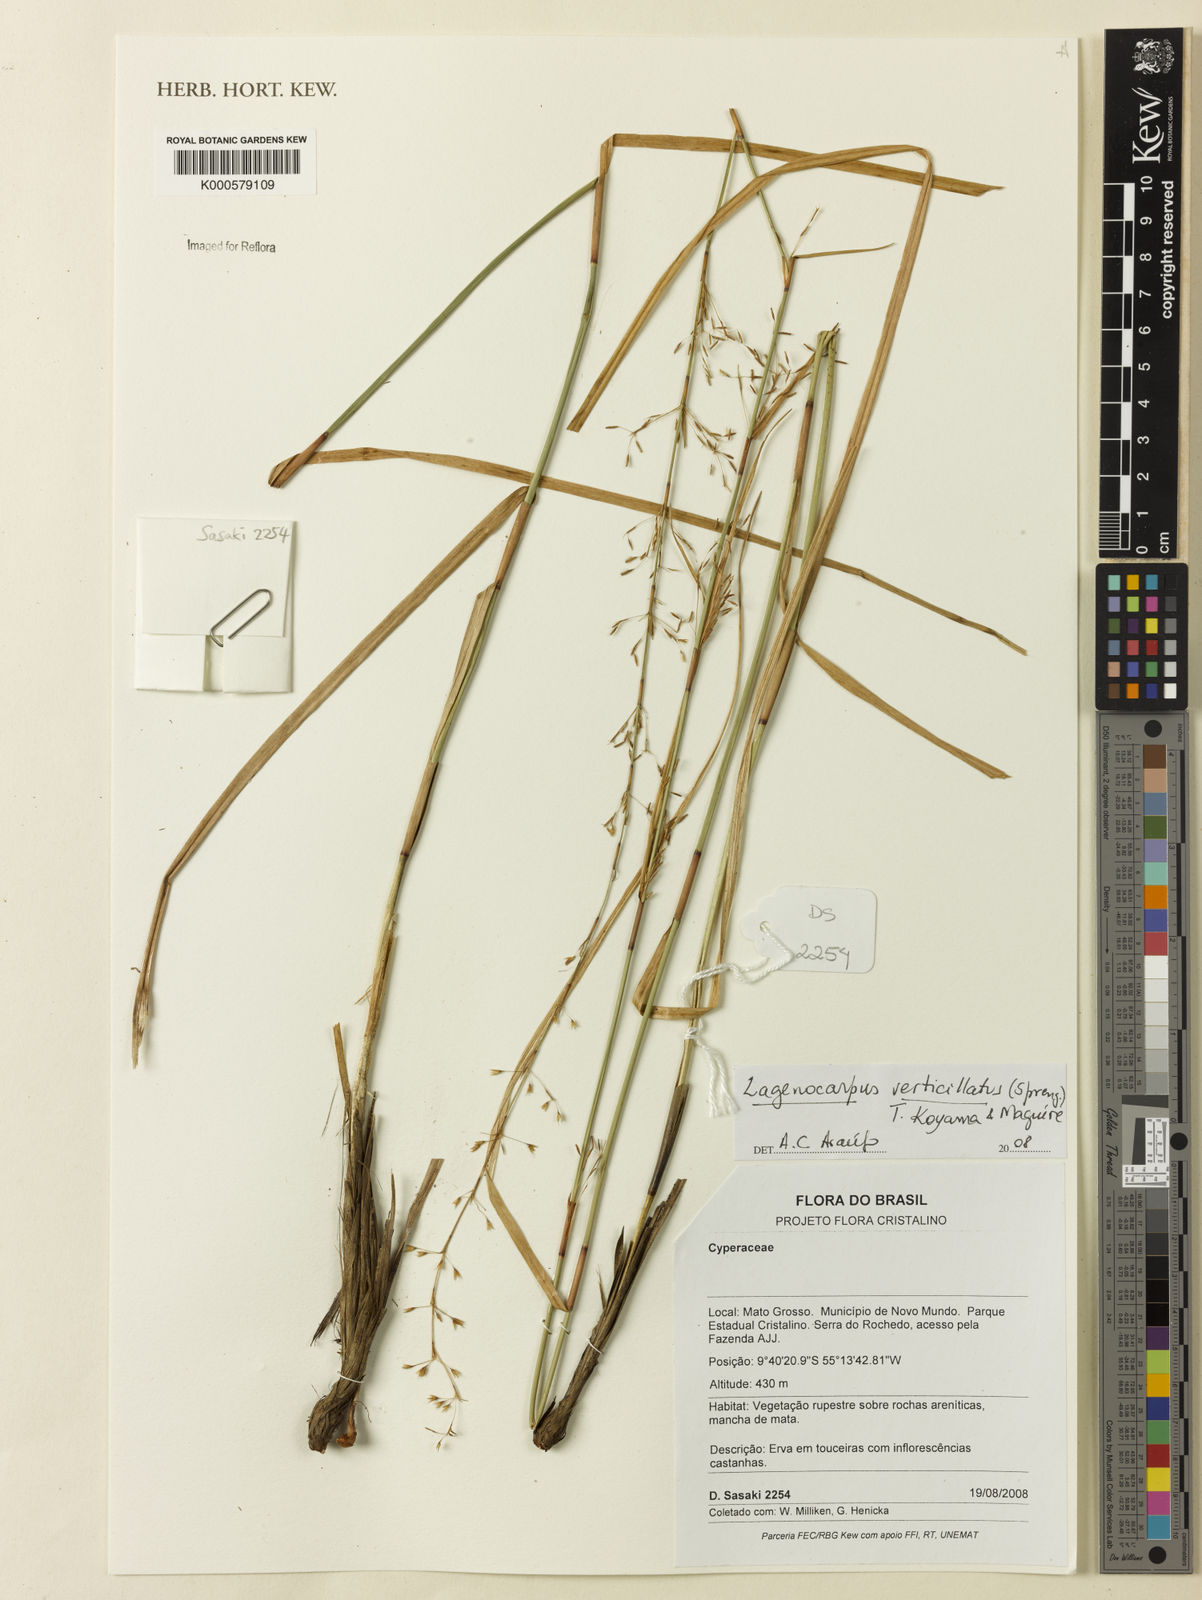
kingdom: Plantae
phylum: Tracheophyta
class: Liliopsida
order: Poales
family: Cyperaceae
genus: Cryptangium
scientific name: Cryptangium verticillatum
